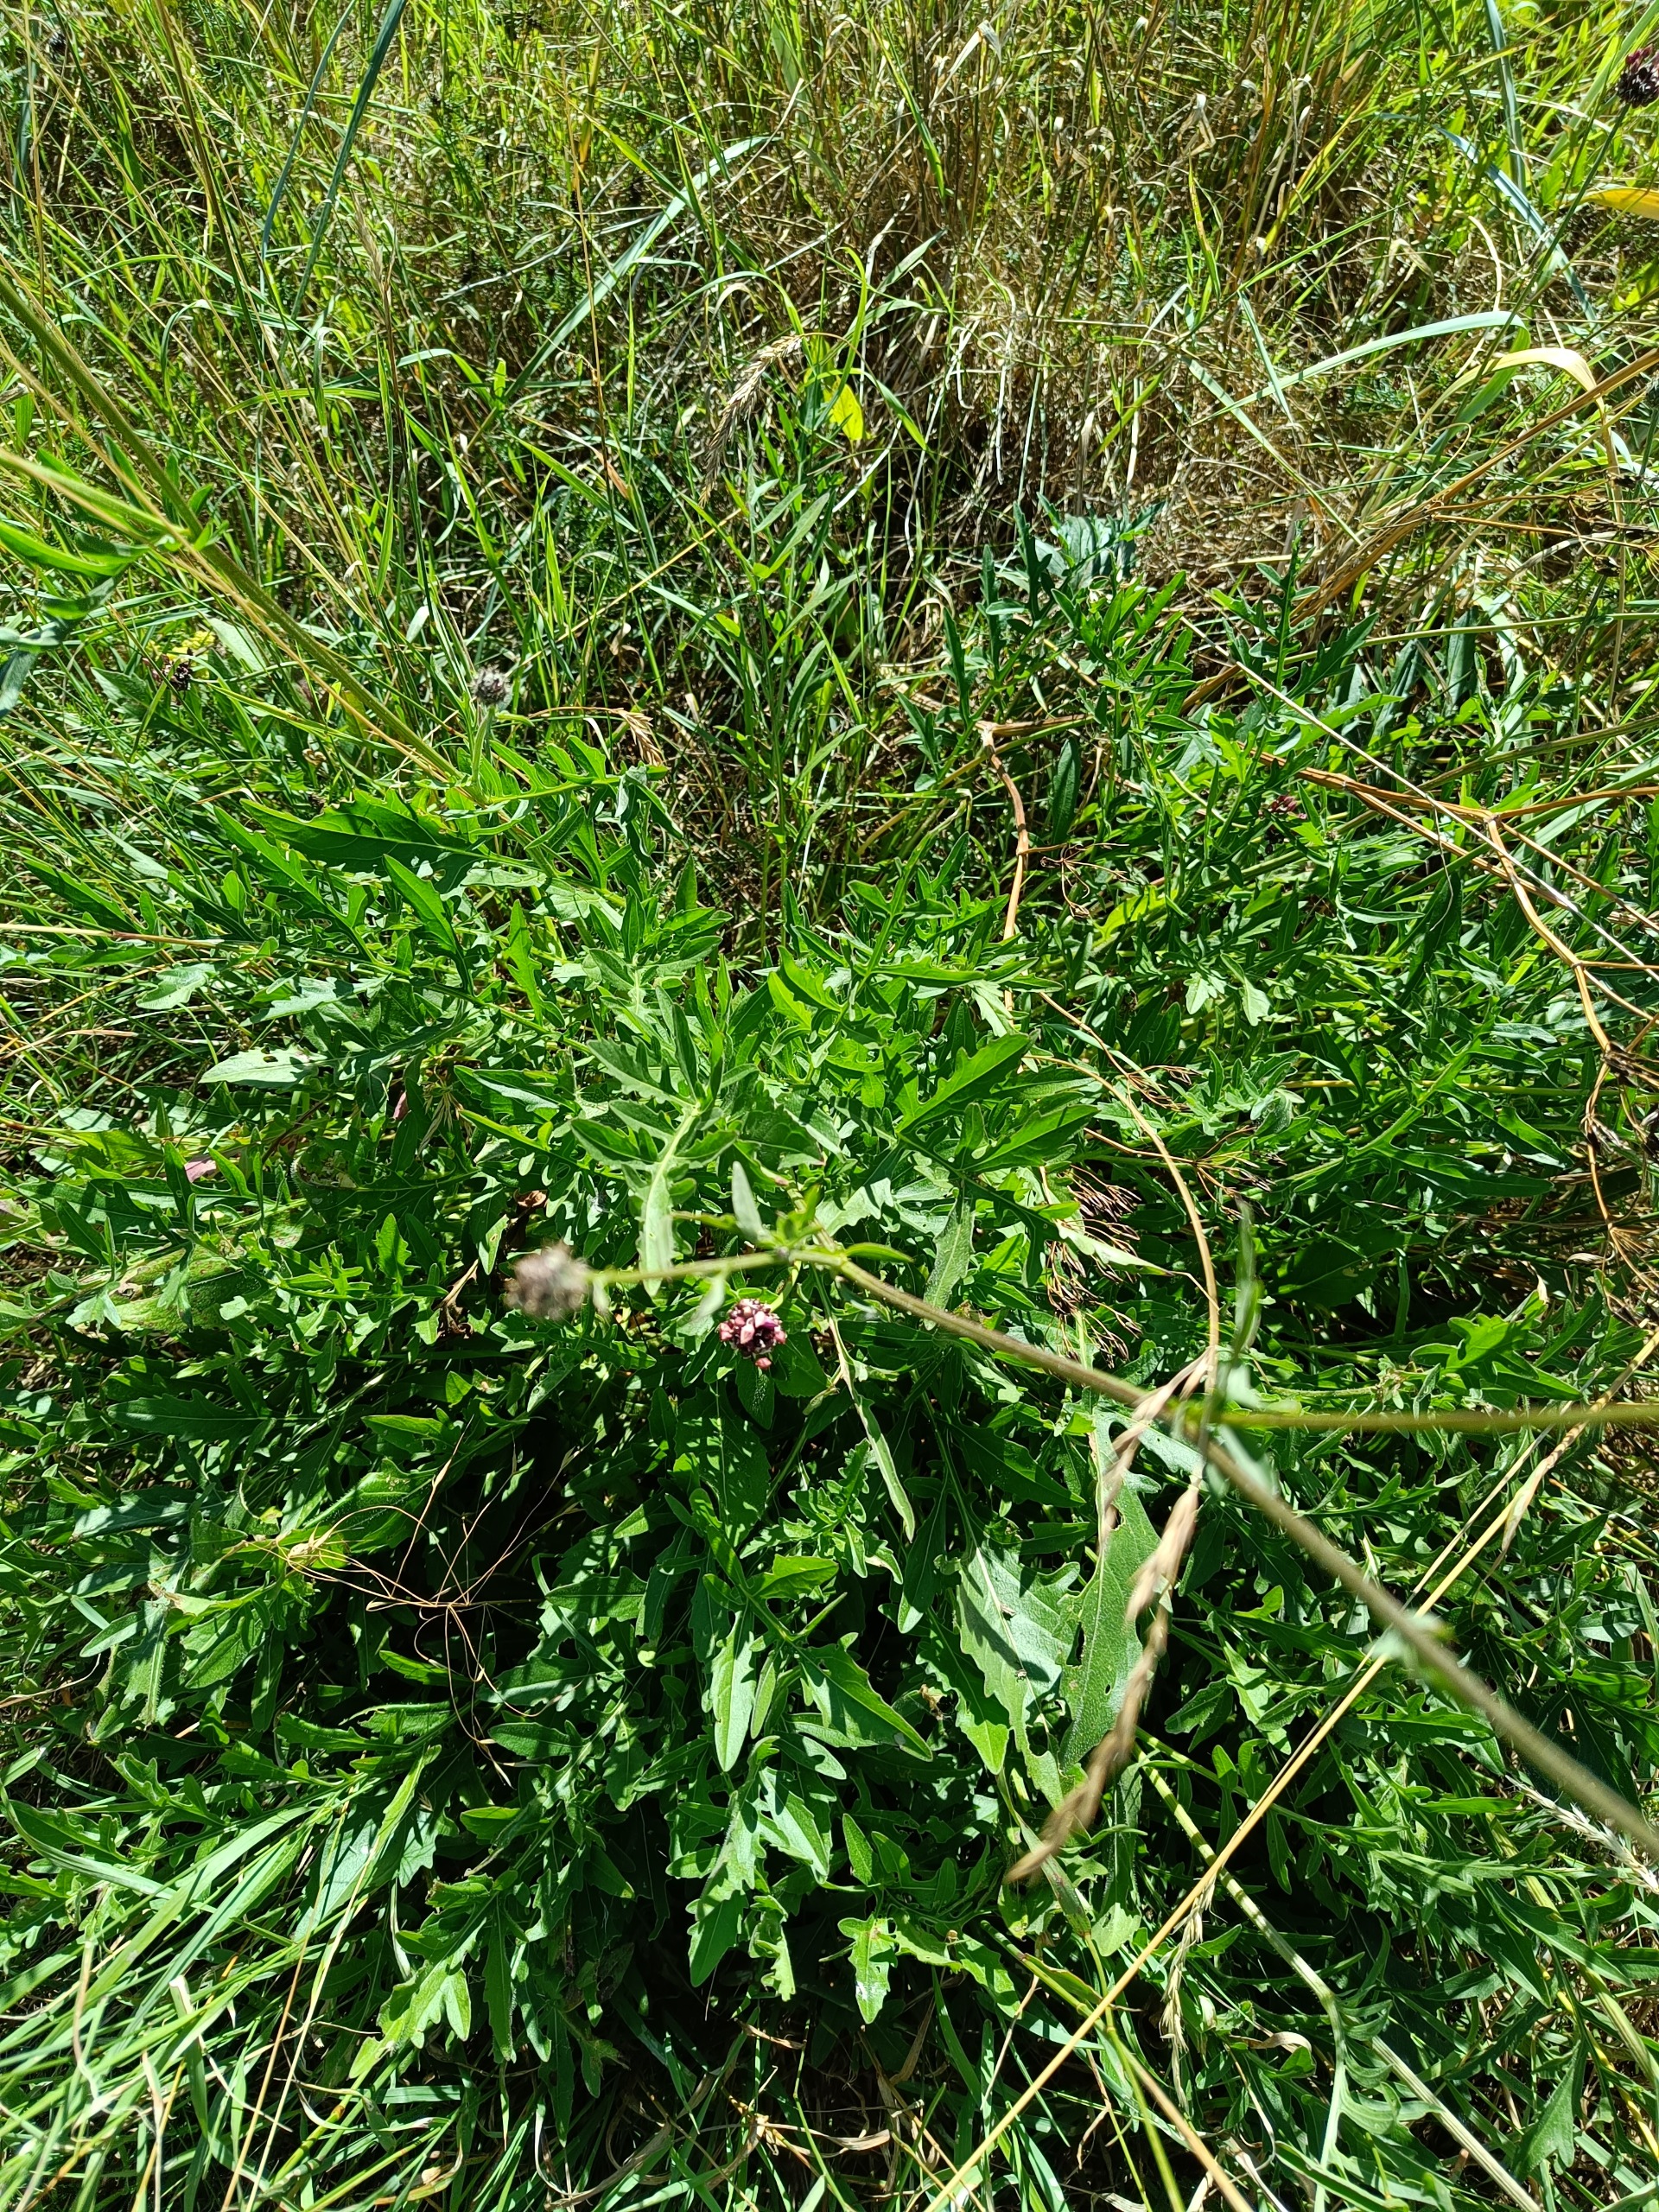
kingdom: Plantae
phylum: Tracheophyta
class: Magnoliopsida
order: Asterales
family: Asteraceae
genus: Centaurea
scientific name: Centaurea scabiosa
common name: Stor knopurt
